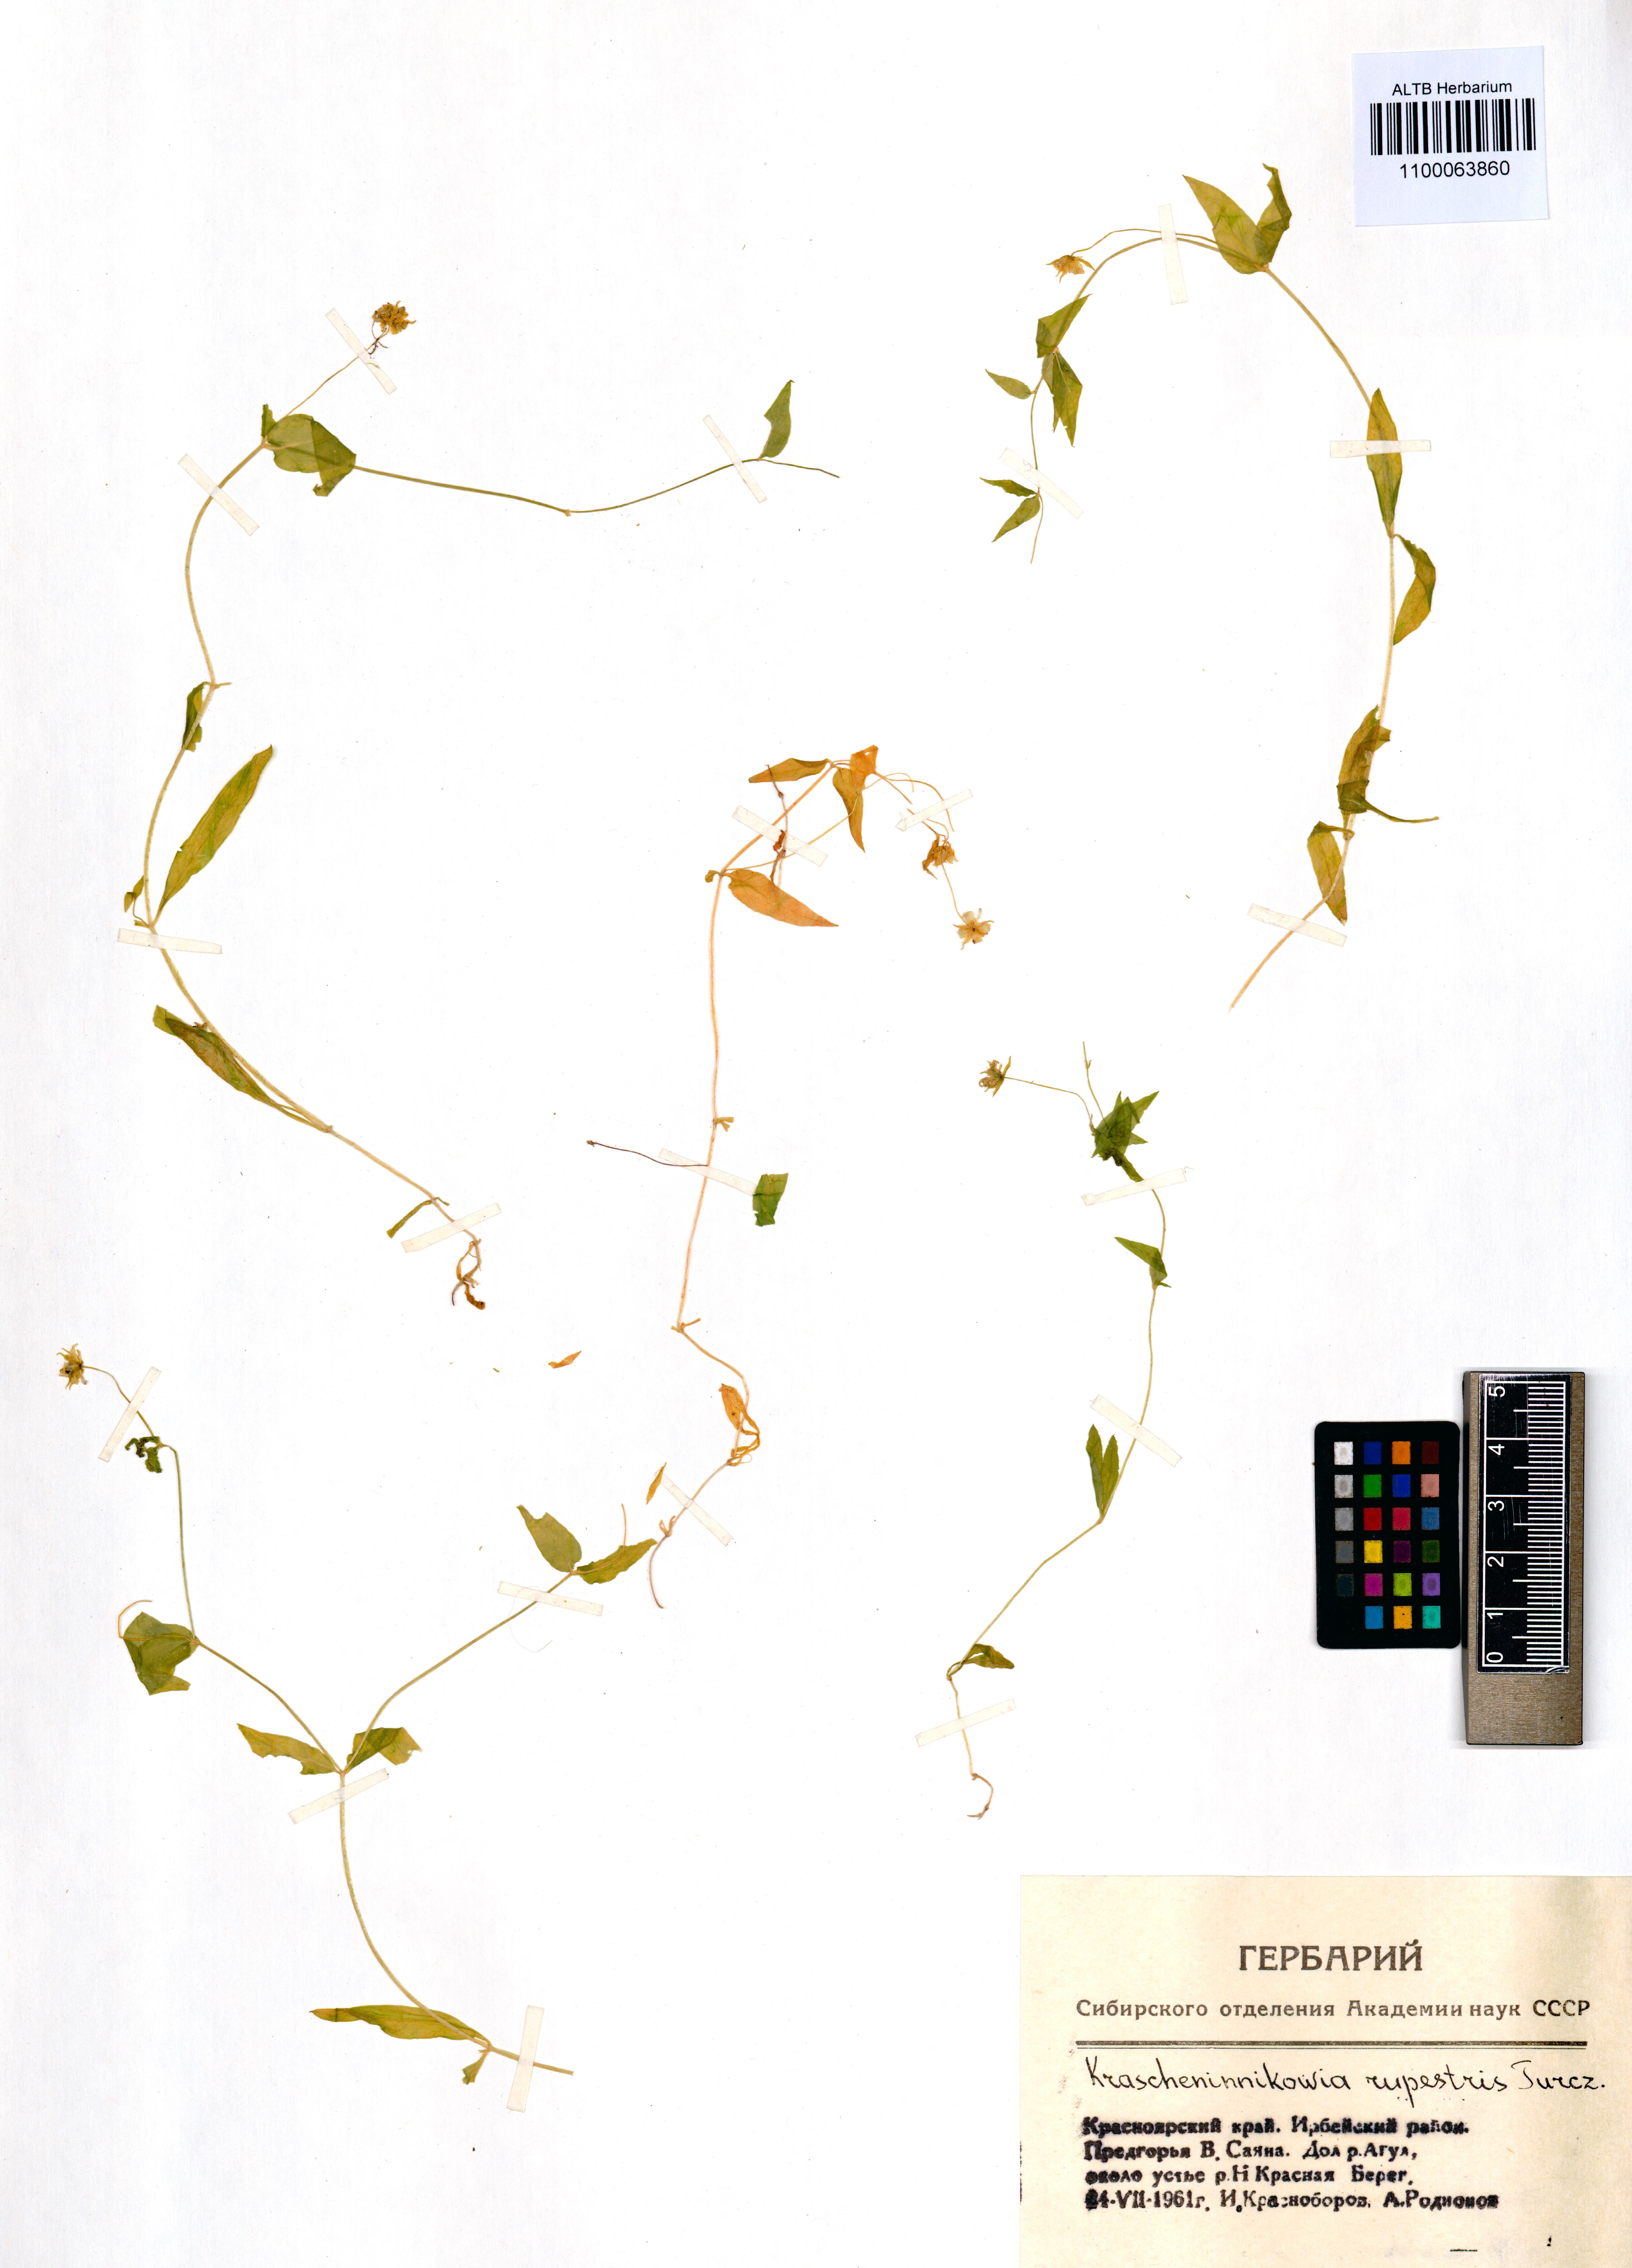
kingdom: Plantae
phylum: Tracheophyta
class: Magnoliopsida
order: Caryophyllales
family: Caryophyllaceae
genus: Pseudostellaria
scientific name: Pseudostellaria rupestris
